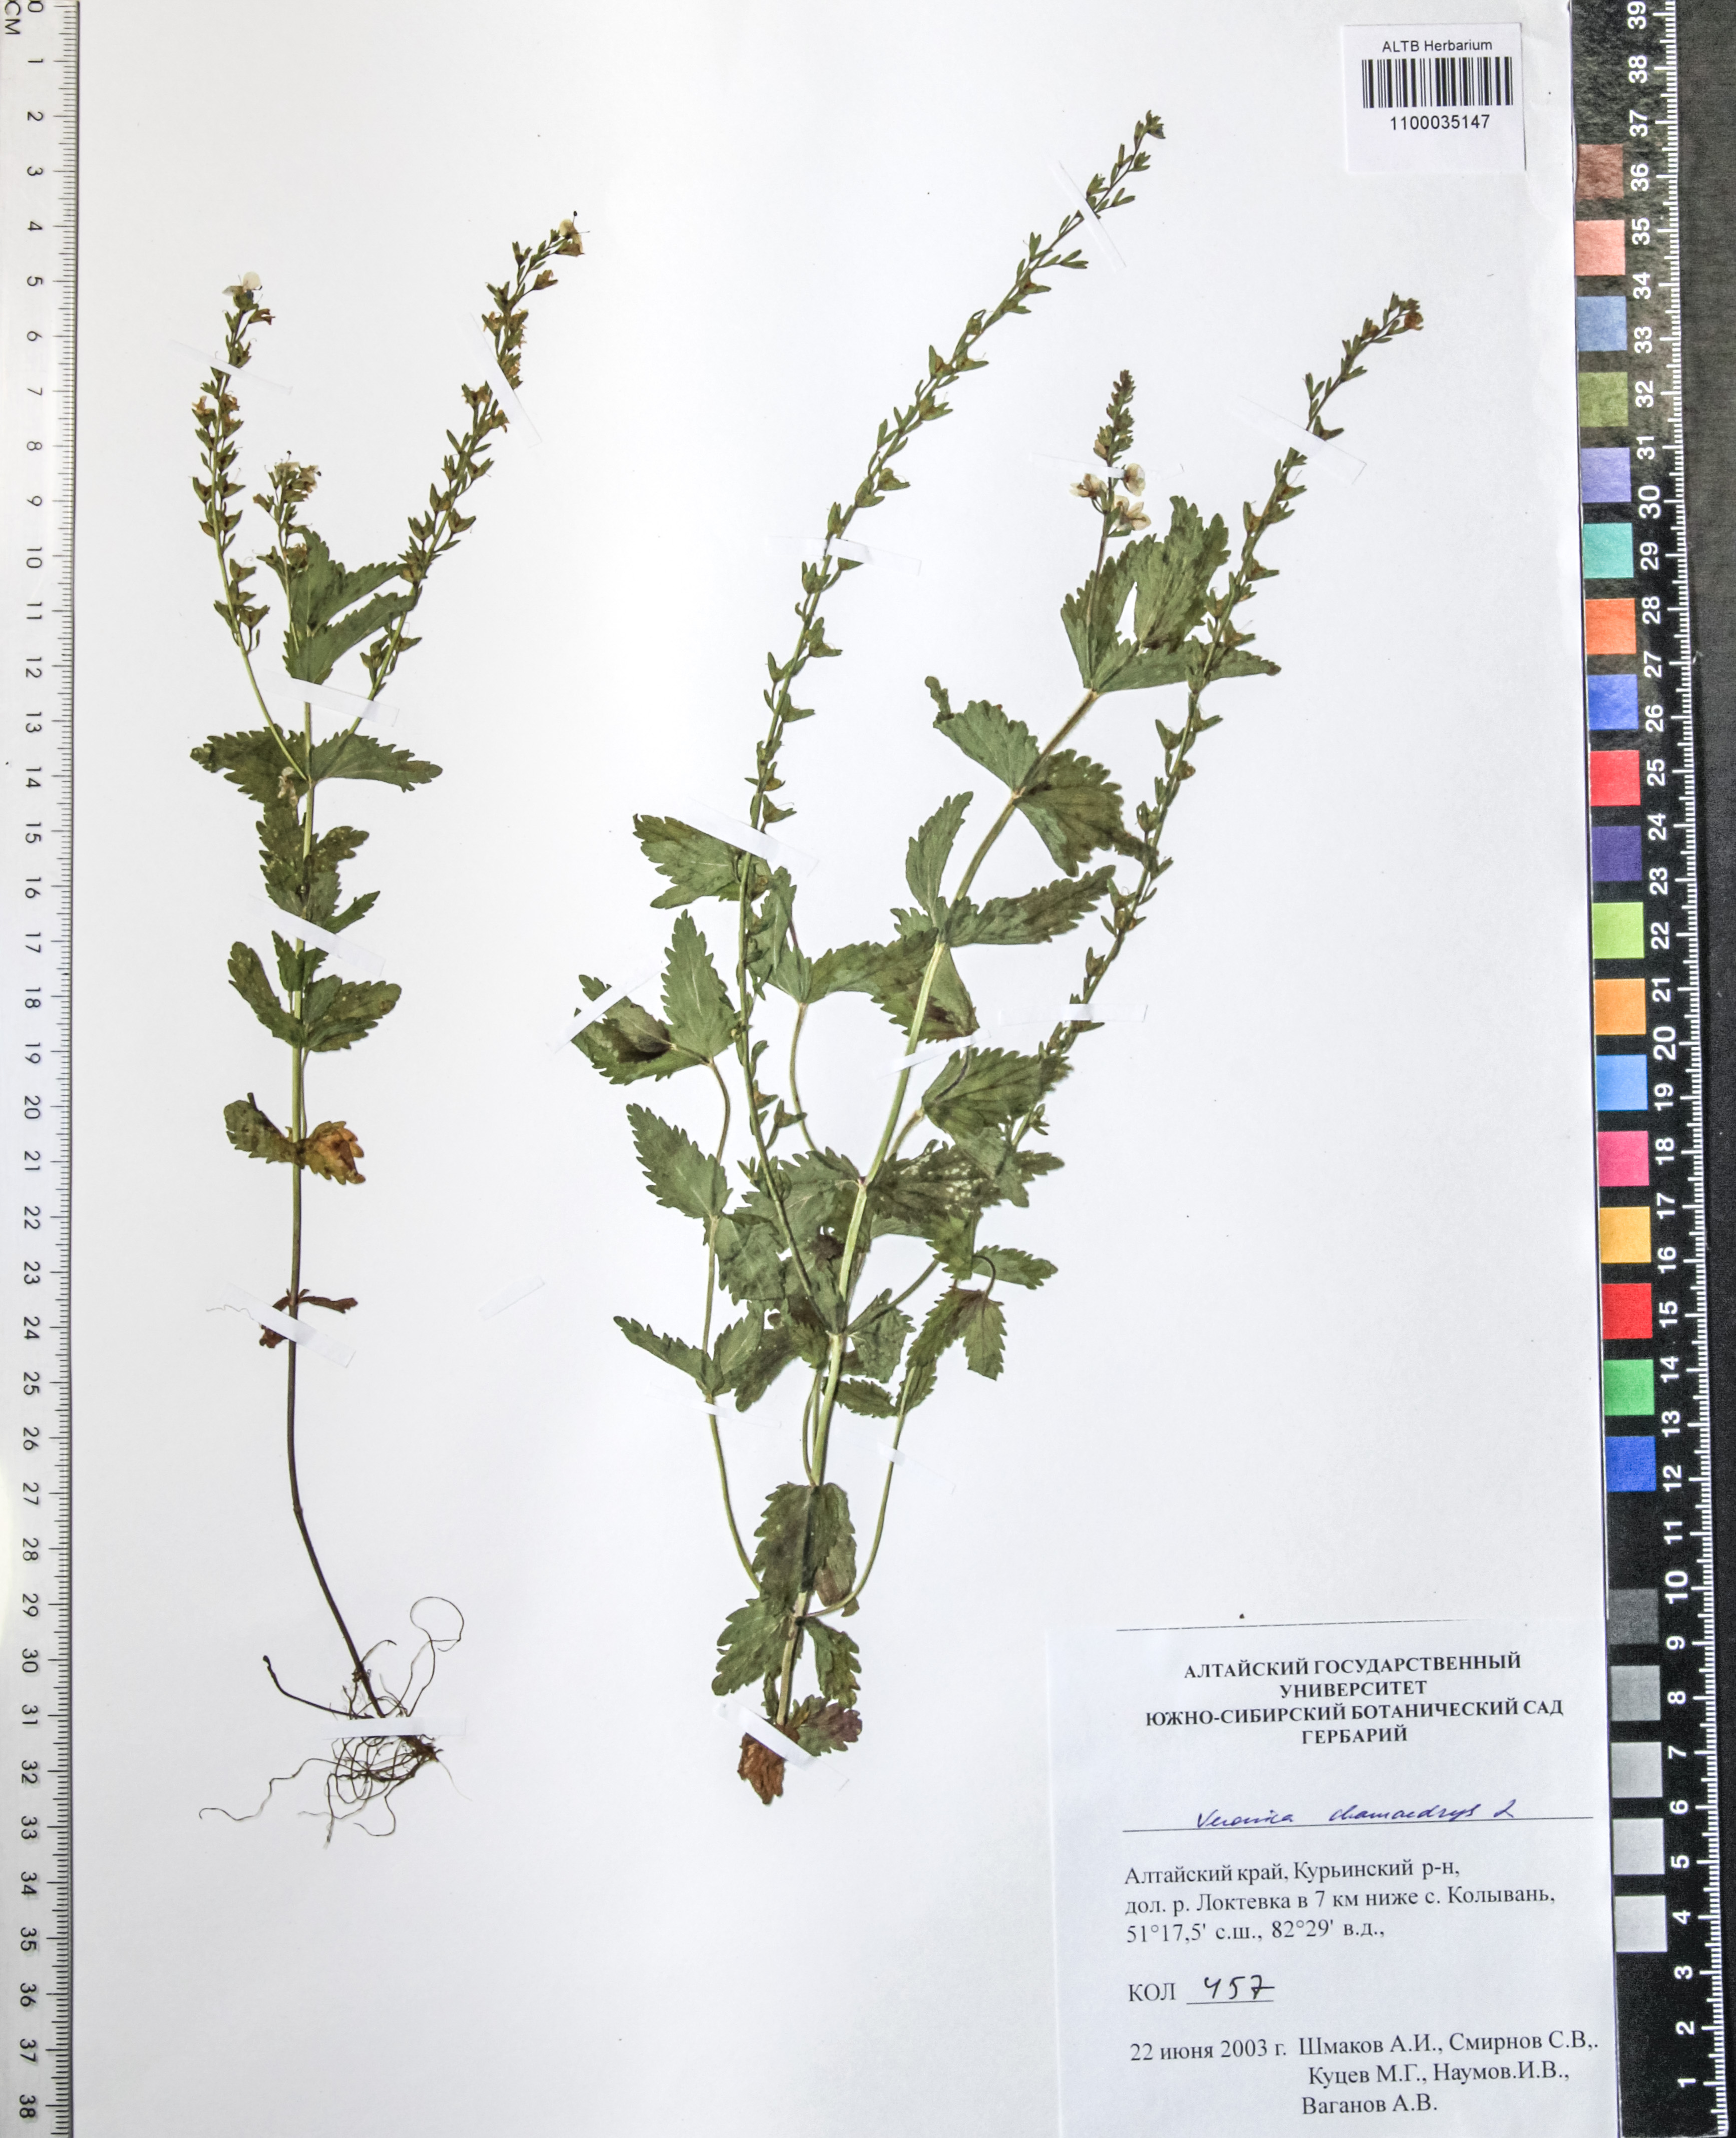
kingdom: Plantae
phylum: Tracheophyta
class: Magnoliopsida
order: Lamiales
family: Plantaginaceae
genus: Veronica
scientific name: Veronica chamaedrys
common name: Germander speedwell
